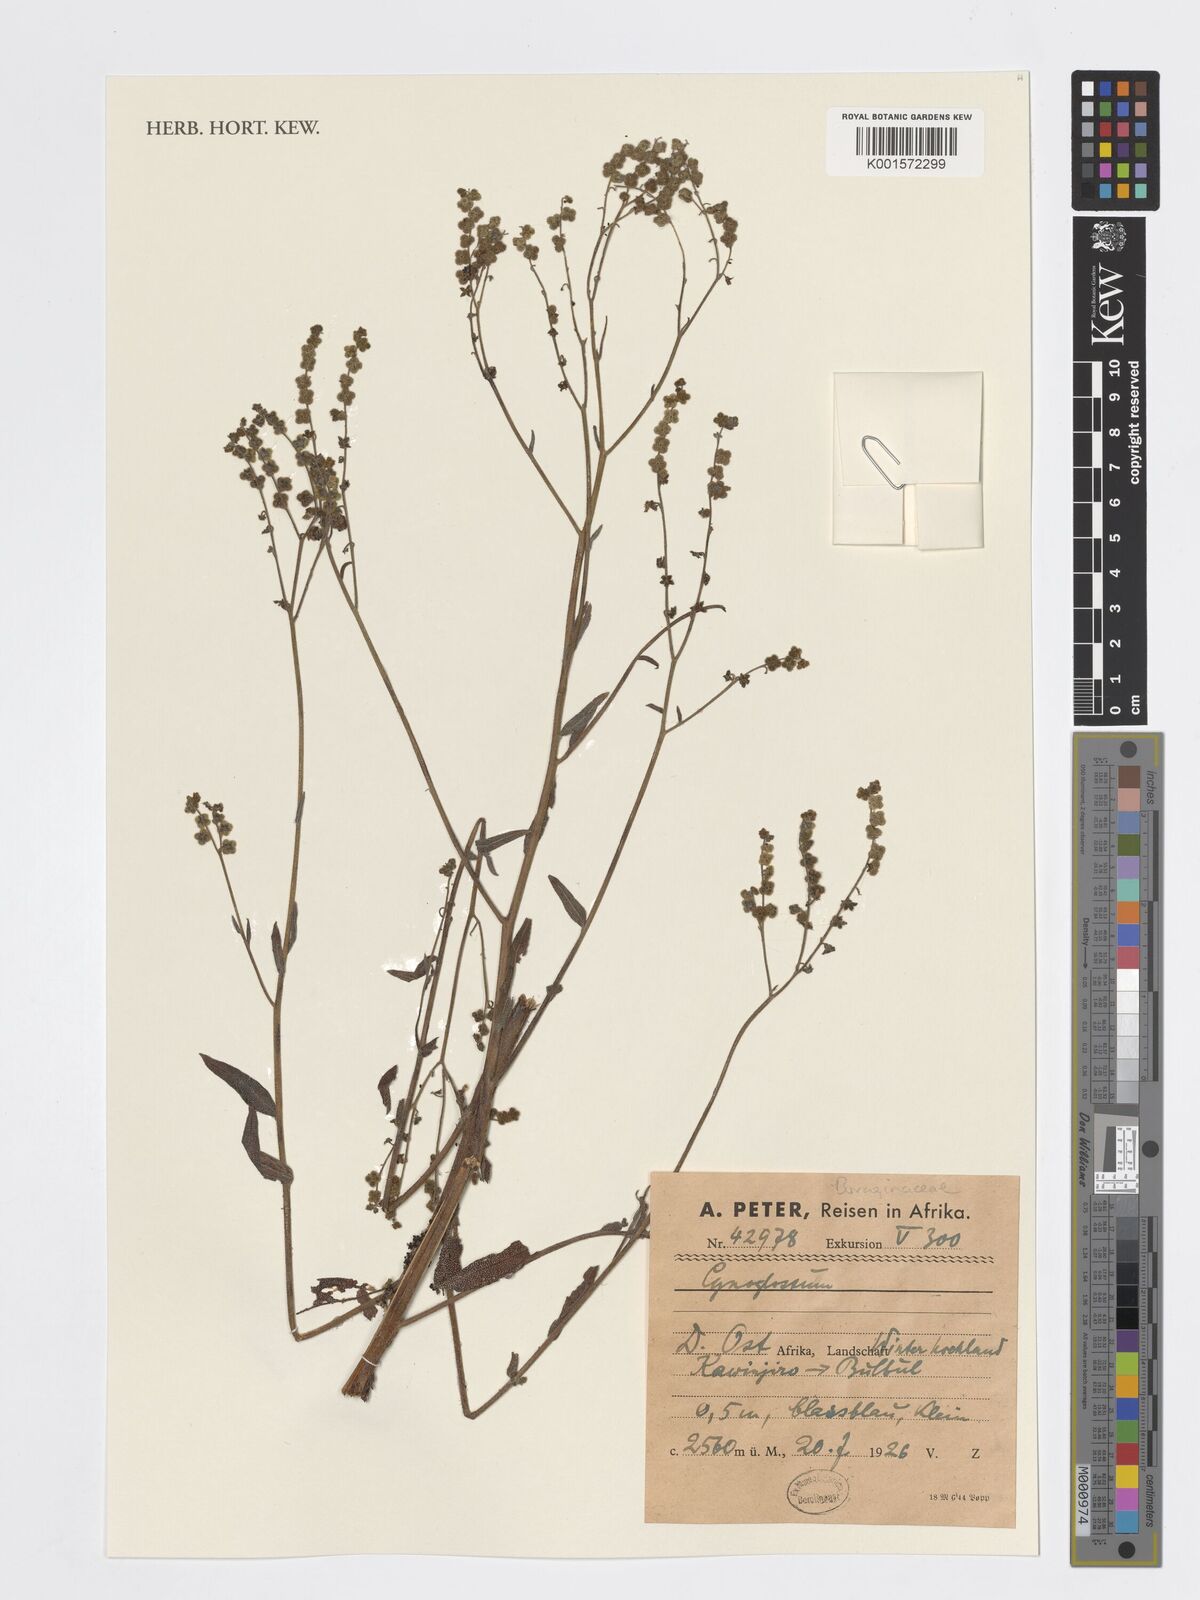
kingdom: Plantae
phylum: Tracheophyta
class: Magnoliopsida
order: Boraginales
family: Boraginaceae
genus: Cynoglossum
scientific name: Cynoglossum
